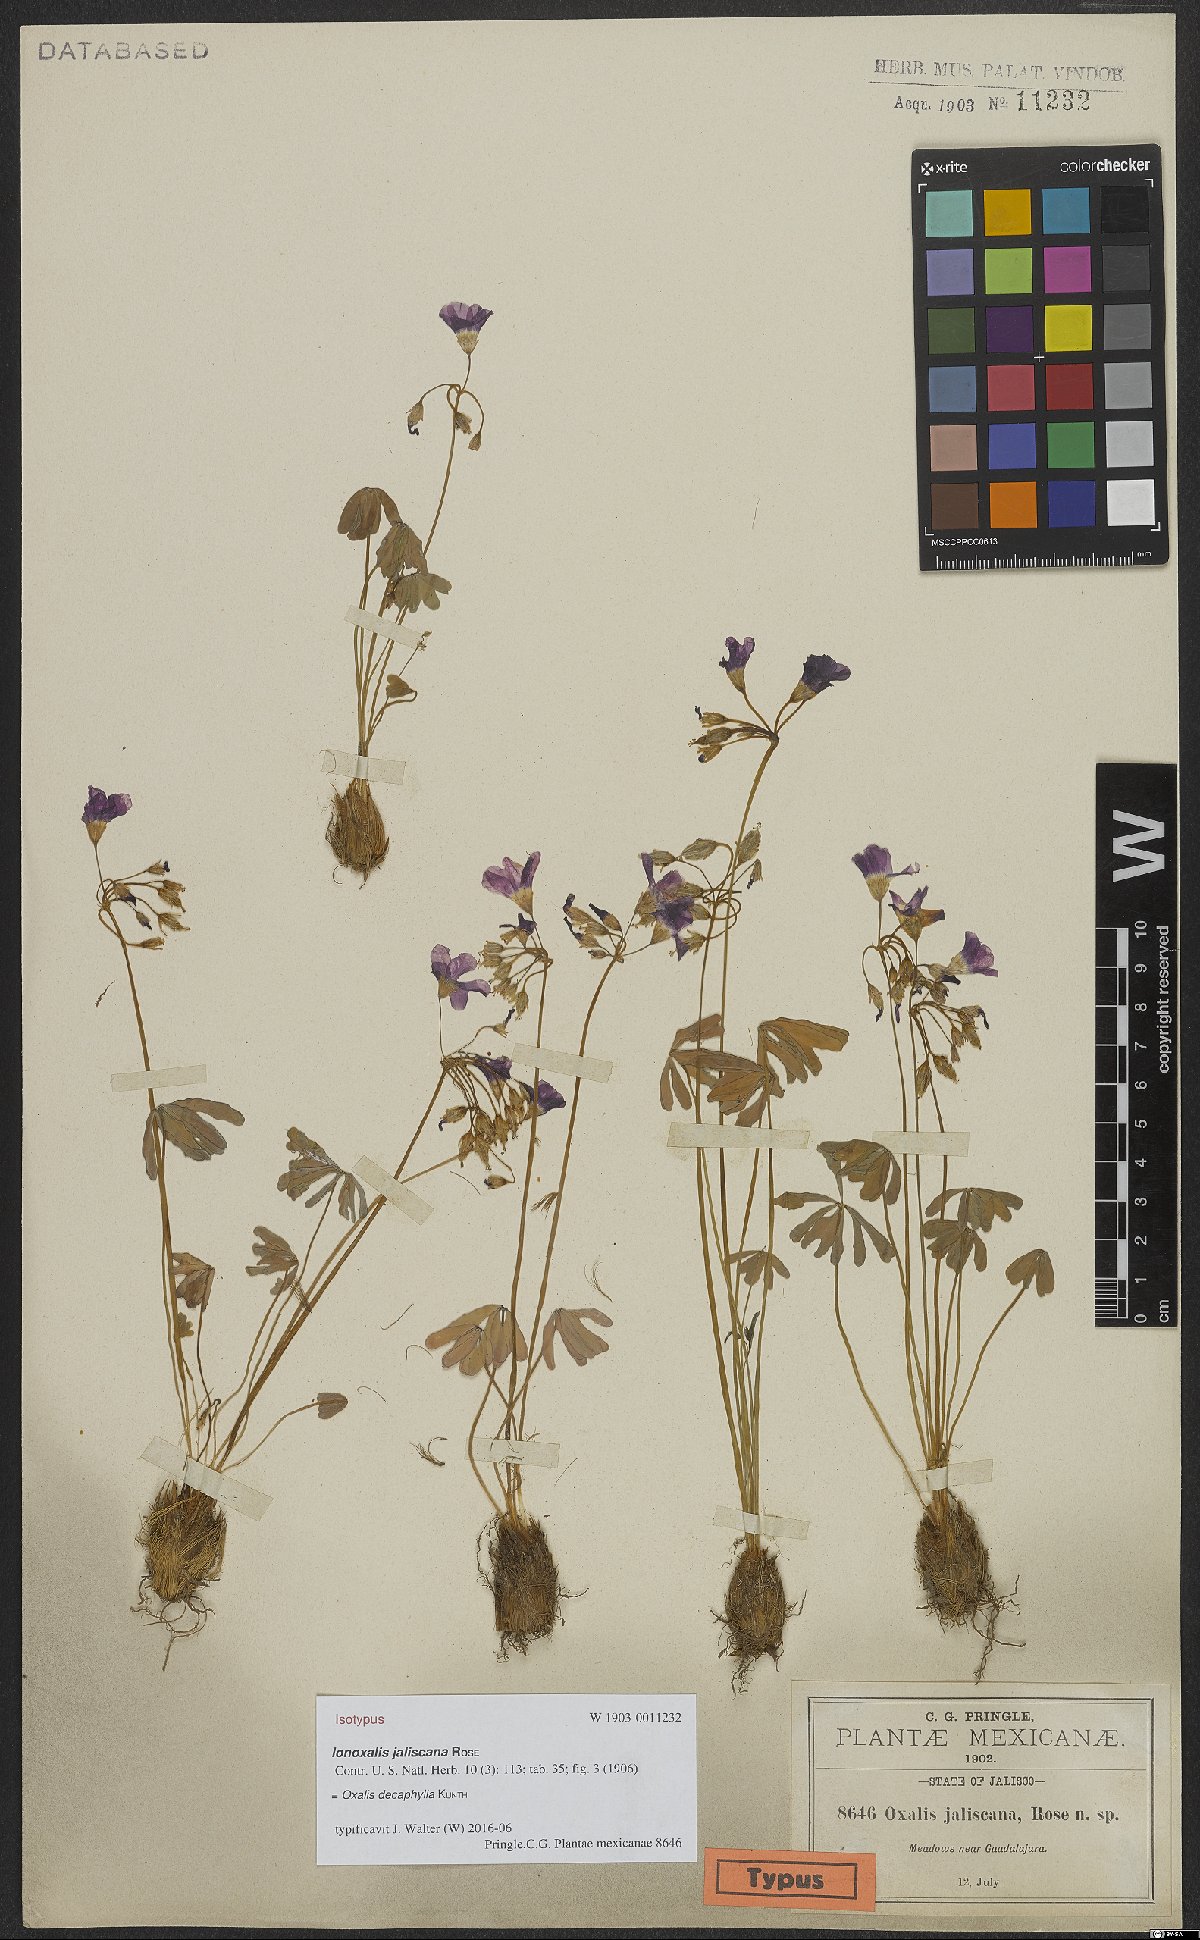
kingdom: Plantae
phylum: Tracheophyta
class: Magnoliopsida
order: Oxalidales
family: Oxalidaceae
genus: Oxalis
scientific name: Oxalis decaphylla
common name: Ten-leaved pink-sorrel
